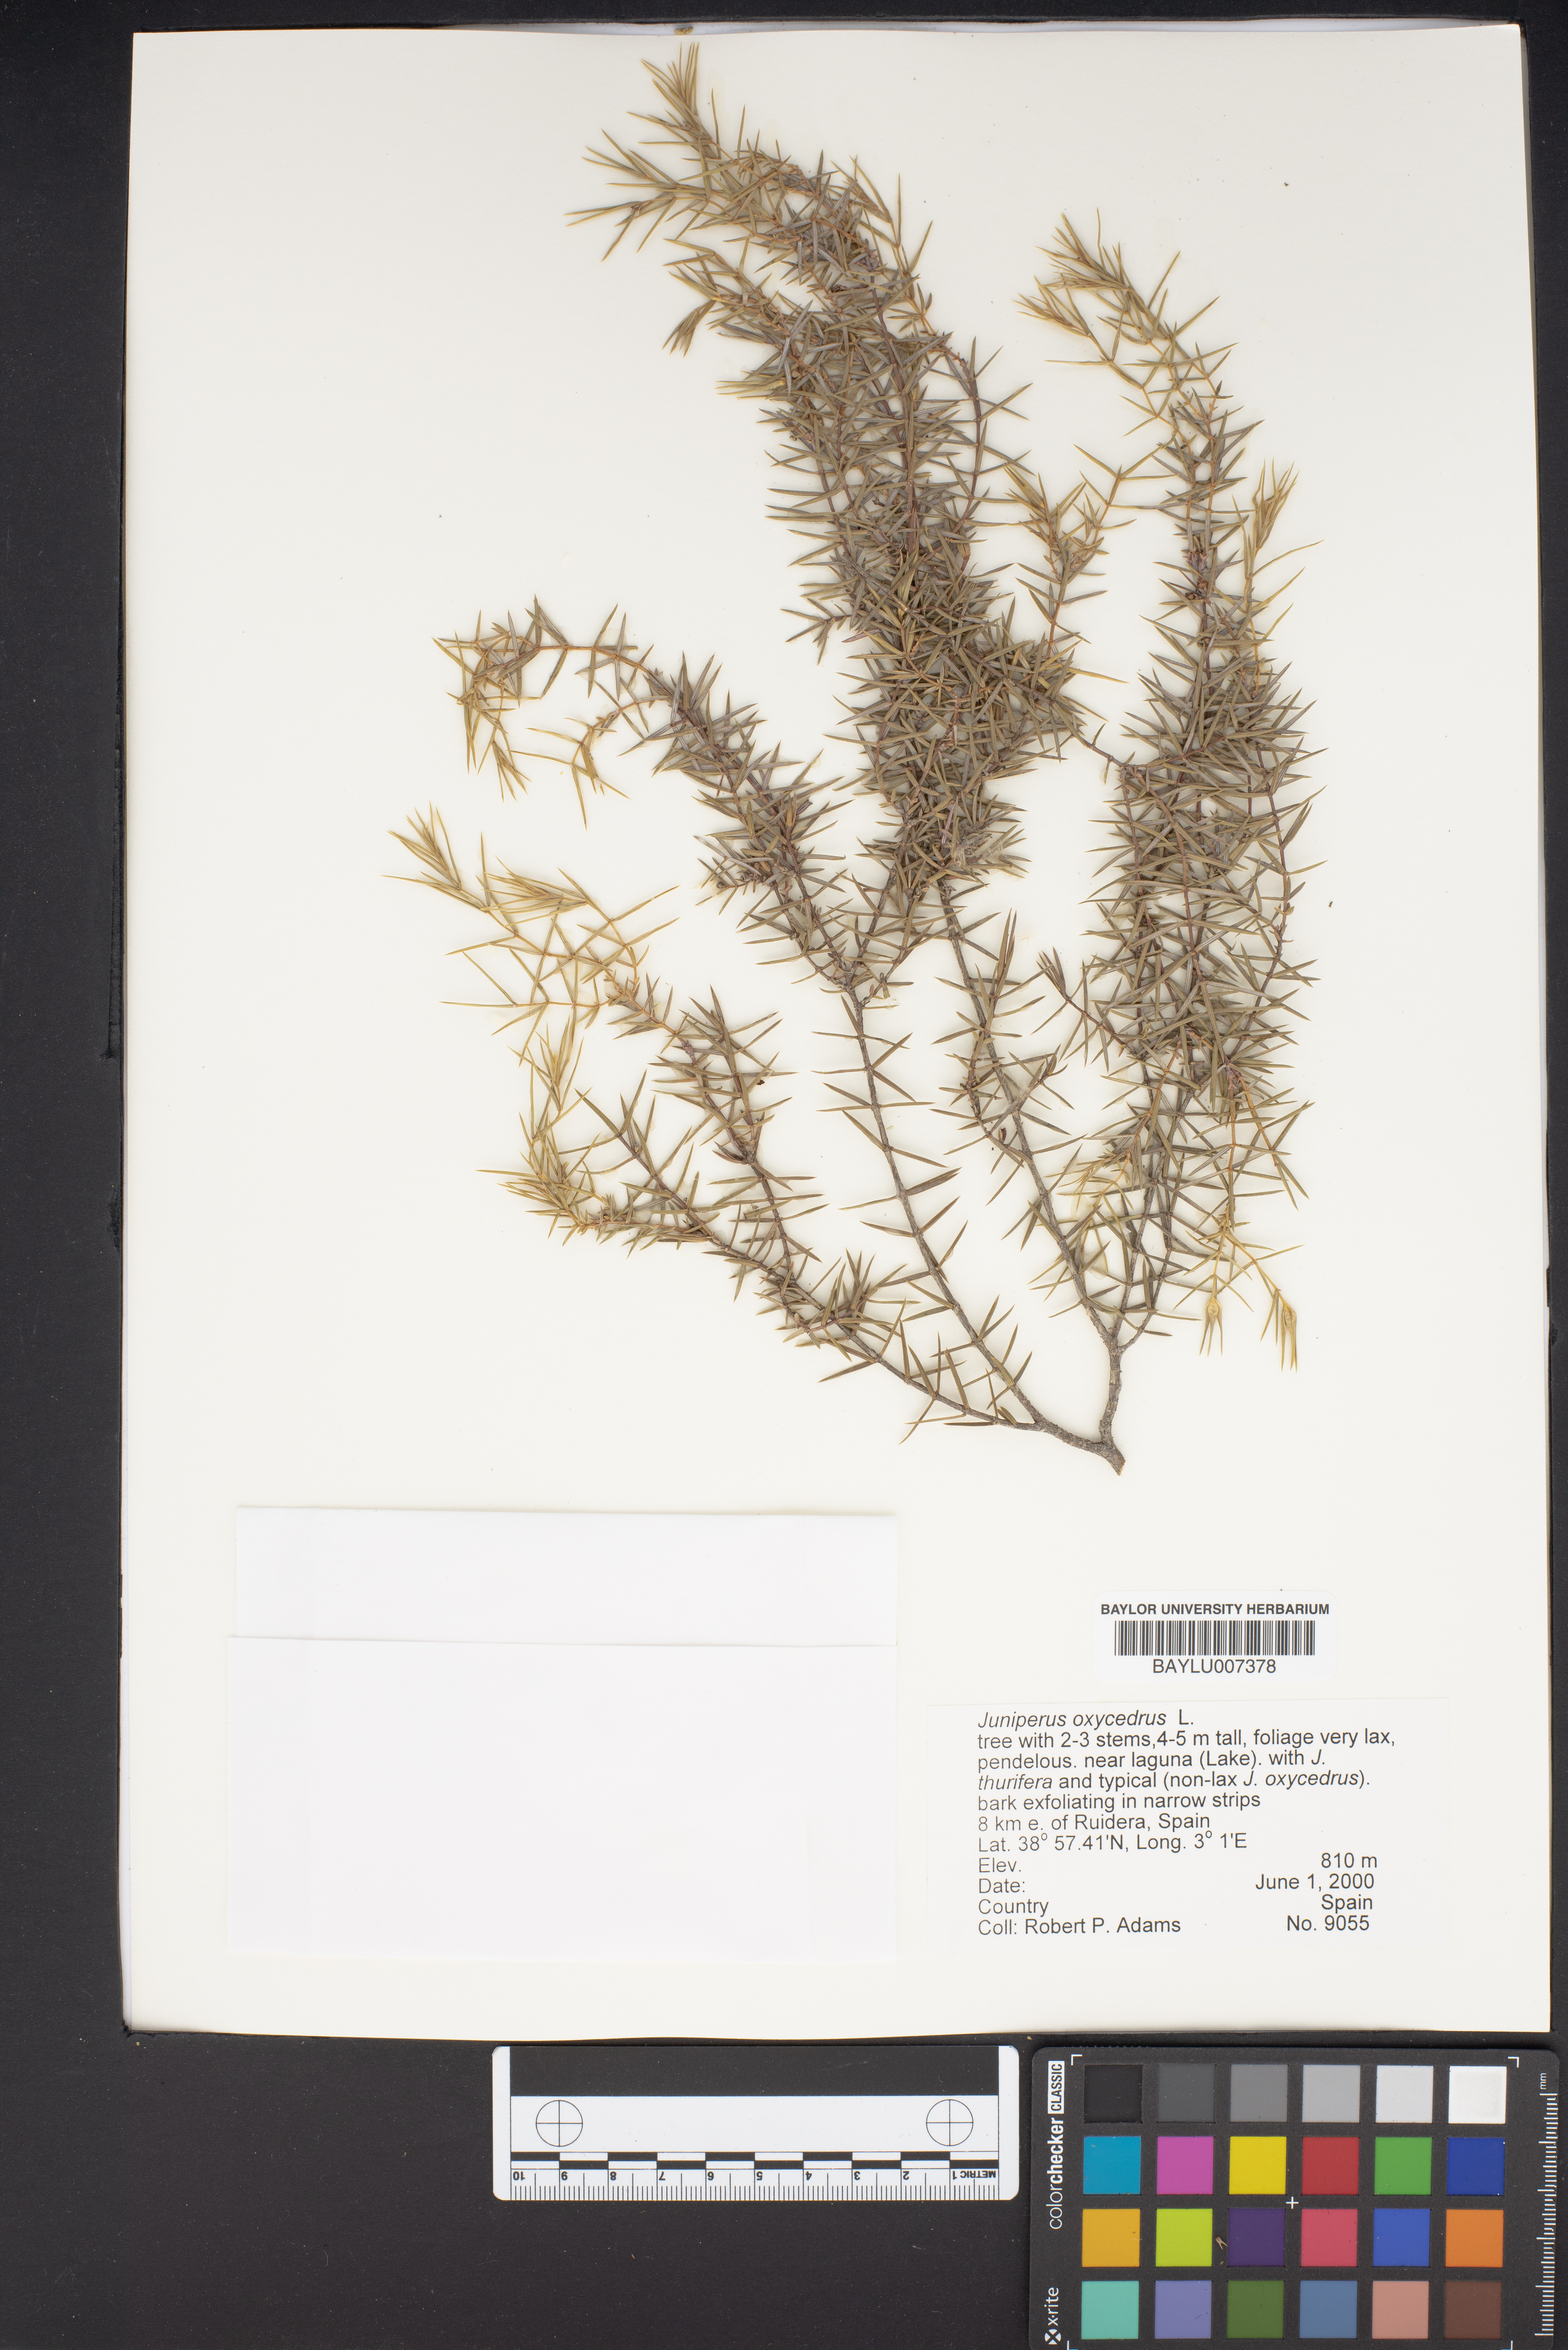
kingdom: Plantae
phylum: Tracheophyta
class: Pinopsida
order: Pinales
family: Cupressaceae
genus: Juniperus
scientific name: Juniperus oxycedrus
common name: Prickly juniper
